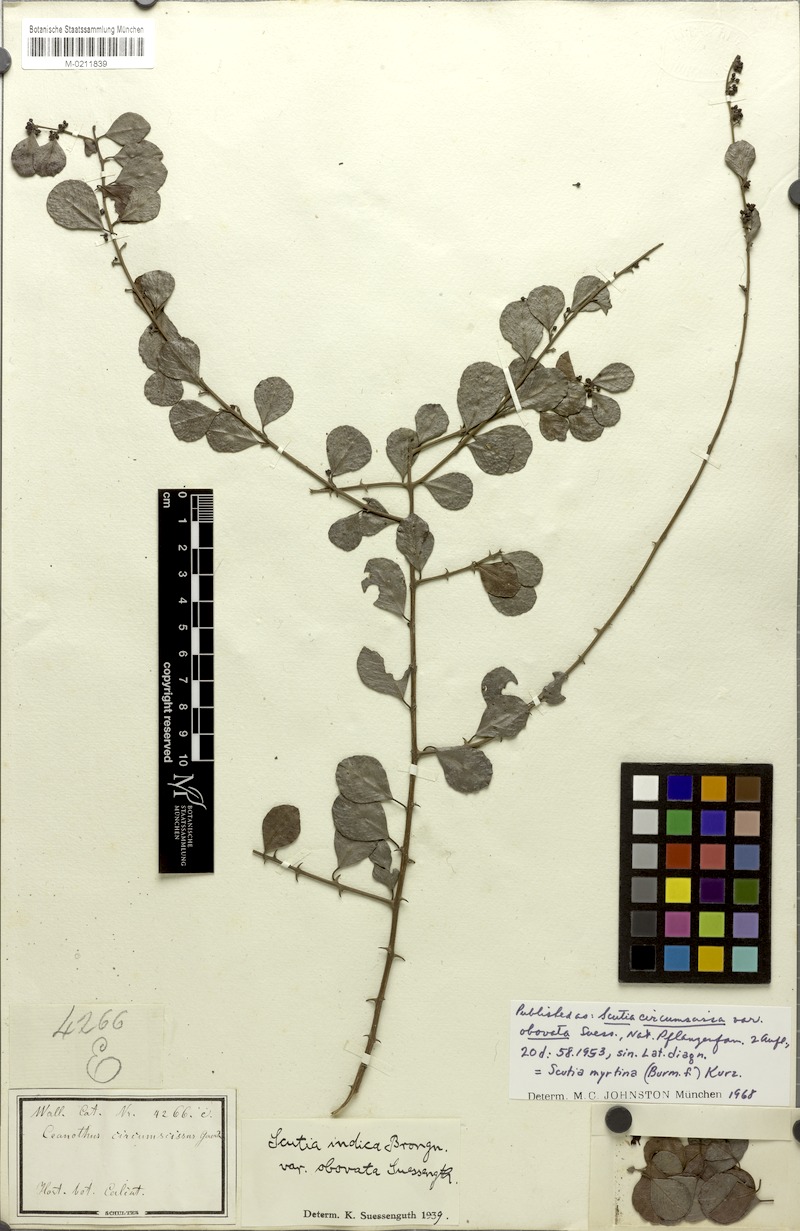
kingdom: Plantae
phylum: Tracheophyta
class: Magnoliopsida
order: Rosales
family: Rhamnaceae
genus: Scutia
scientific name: Scutia myrtina
